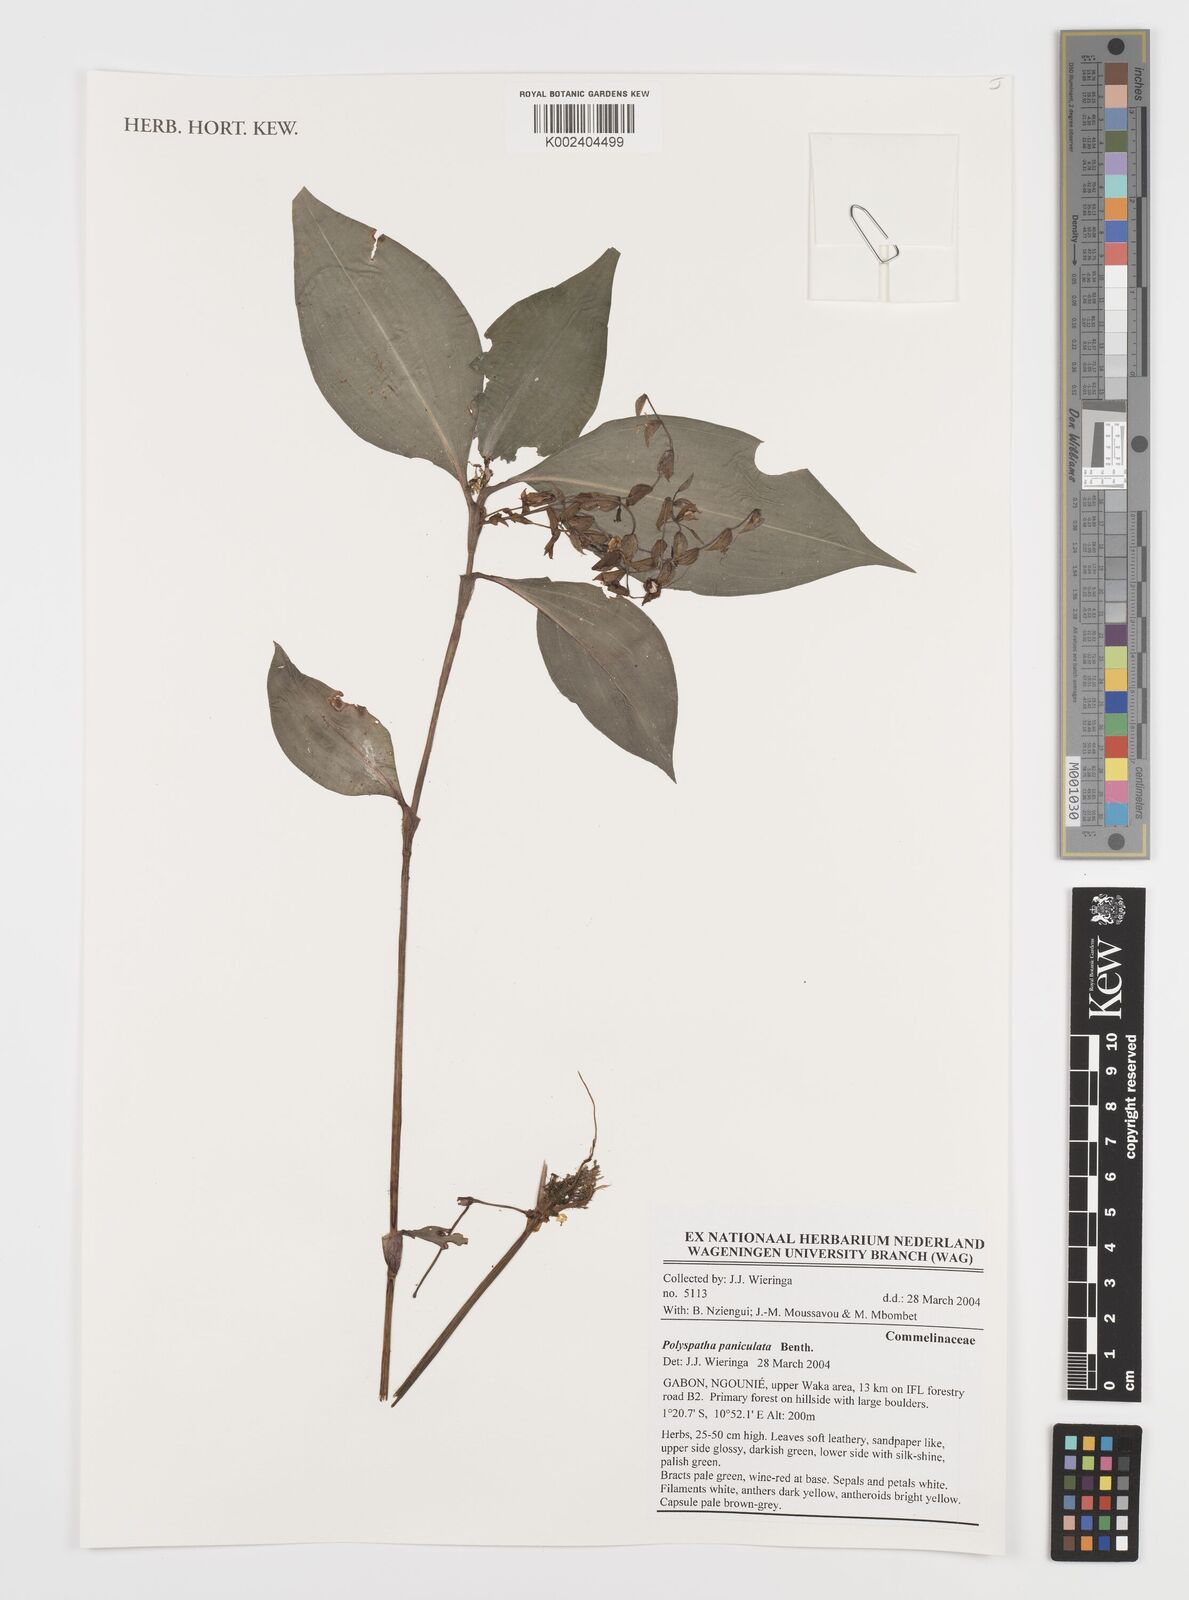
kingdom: Plantae
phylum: Tracheophyta
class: Liliopsida
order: Commelinales
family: Commelinaceae
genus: Polyspatha
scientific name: Polyspatha paniculata
